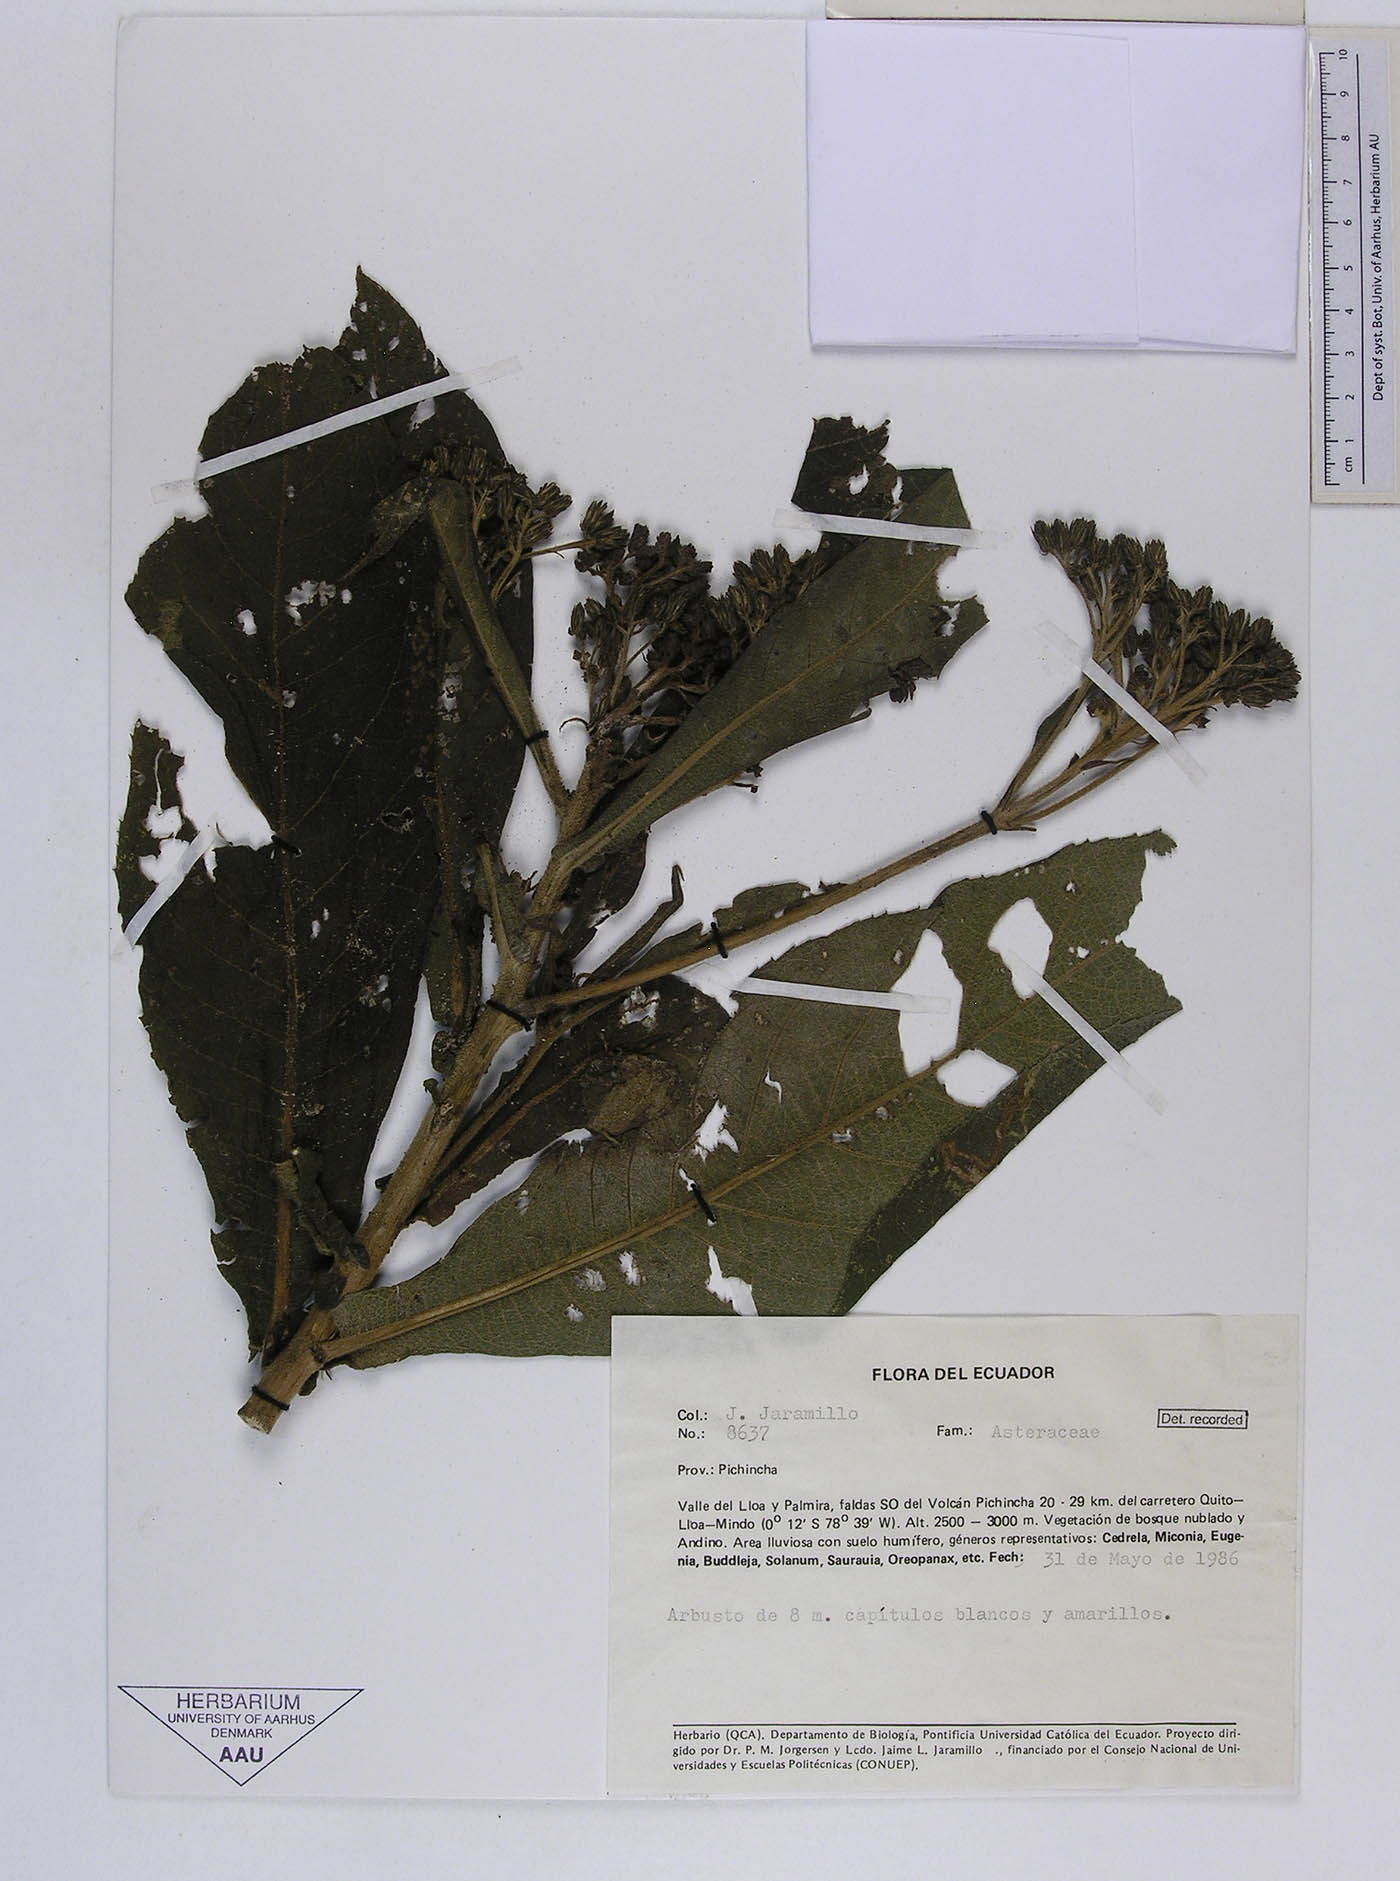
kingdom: Plantae
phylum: Tracheophyta
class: Magnoliopsida
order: Asterales
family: Asteraceae
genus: Verbesina
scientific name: Verbesina lloensis
